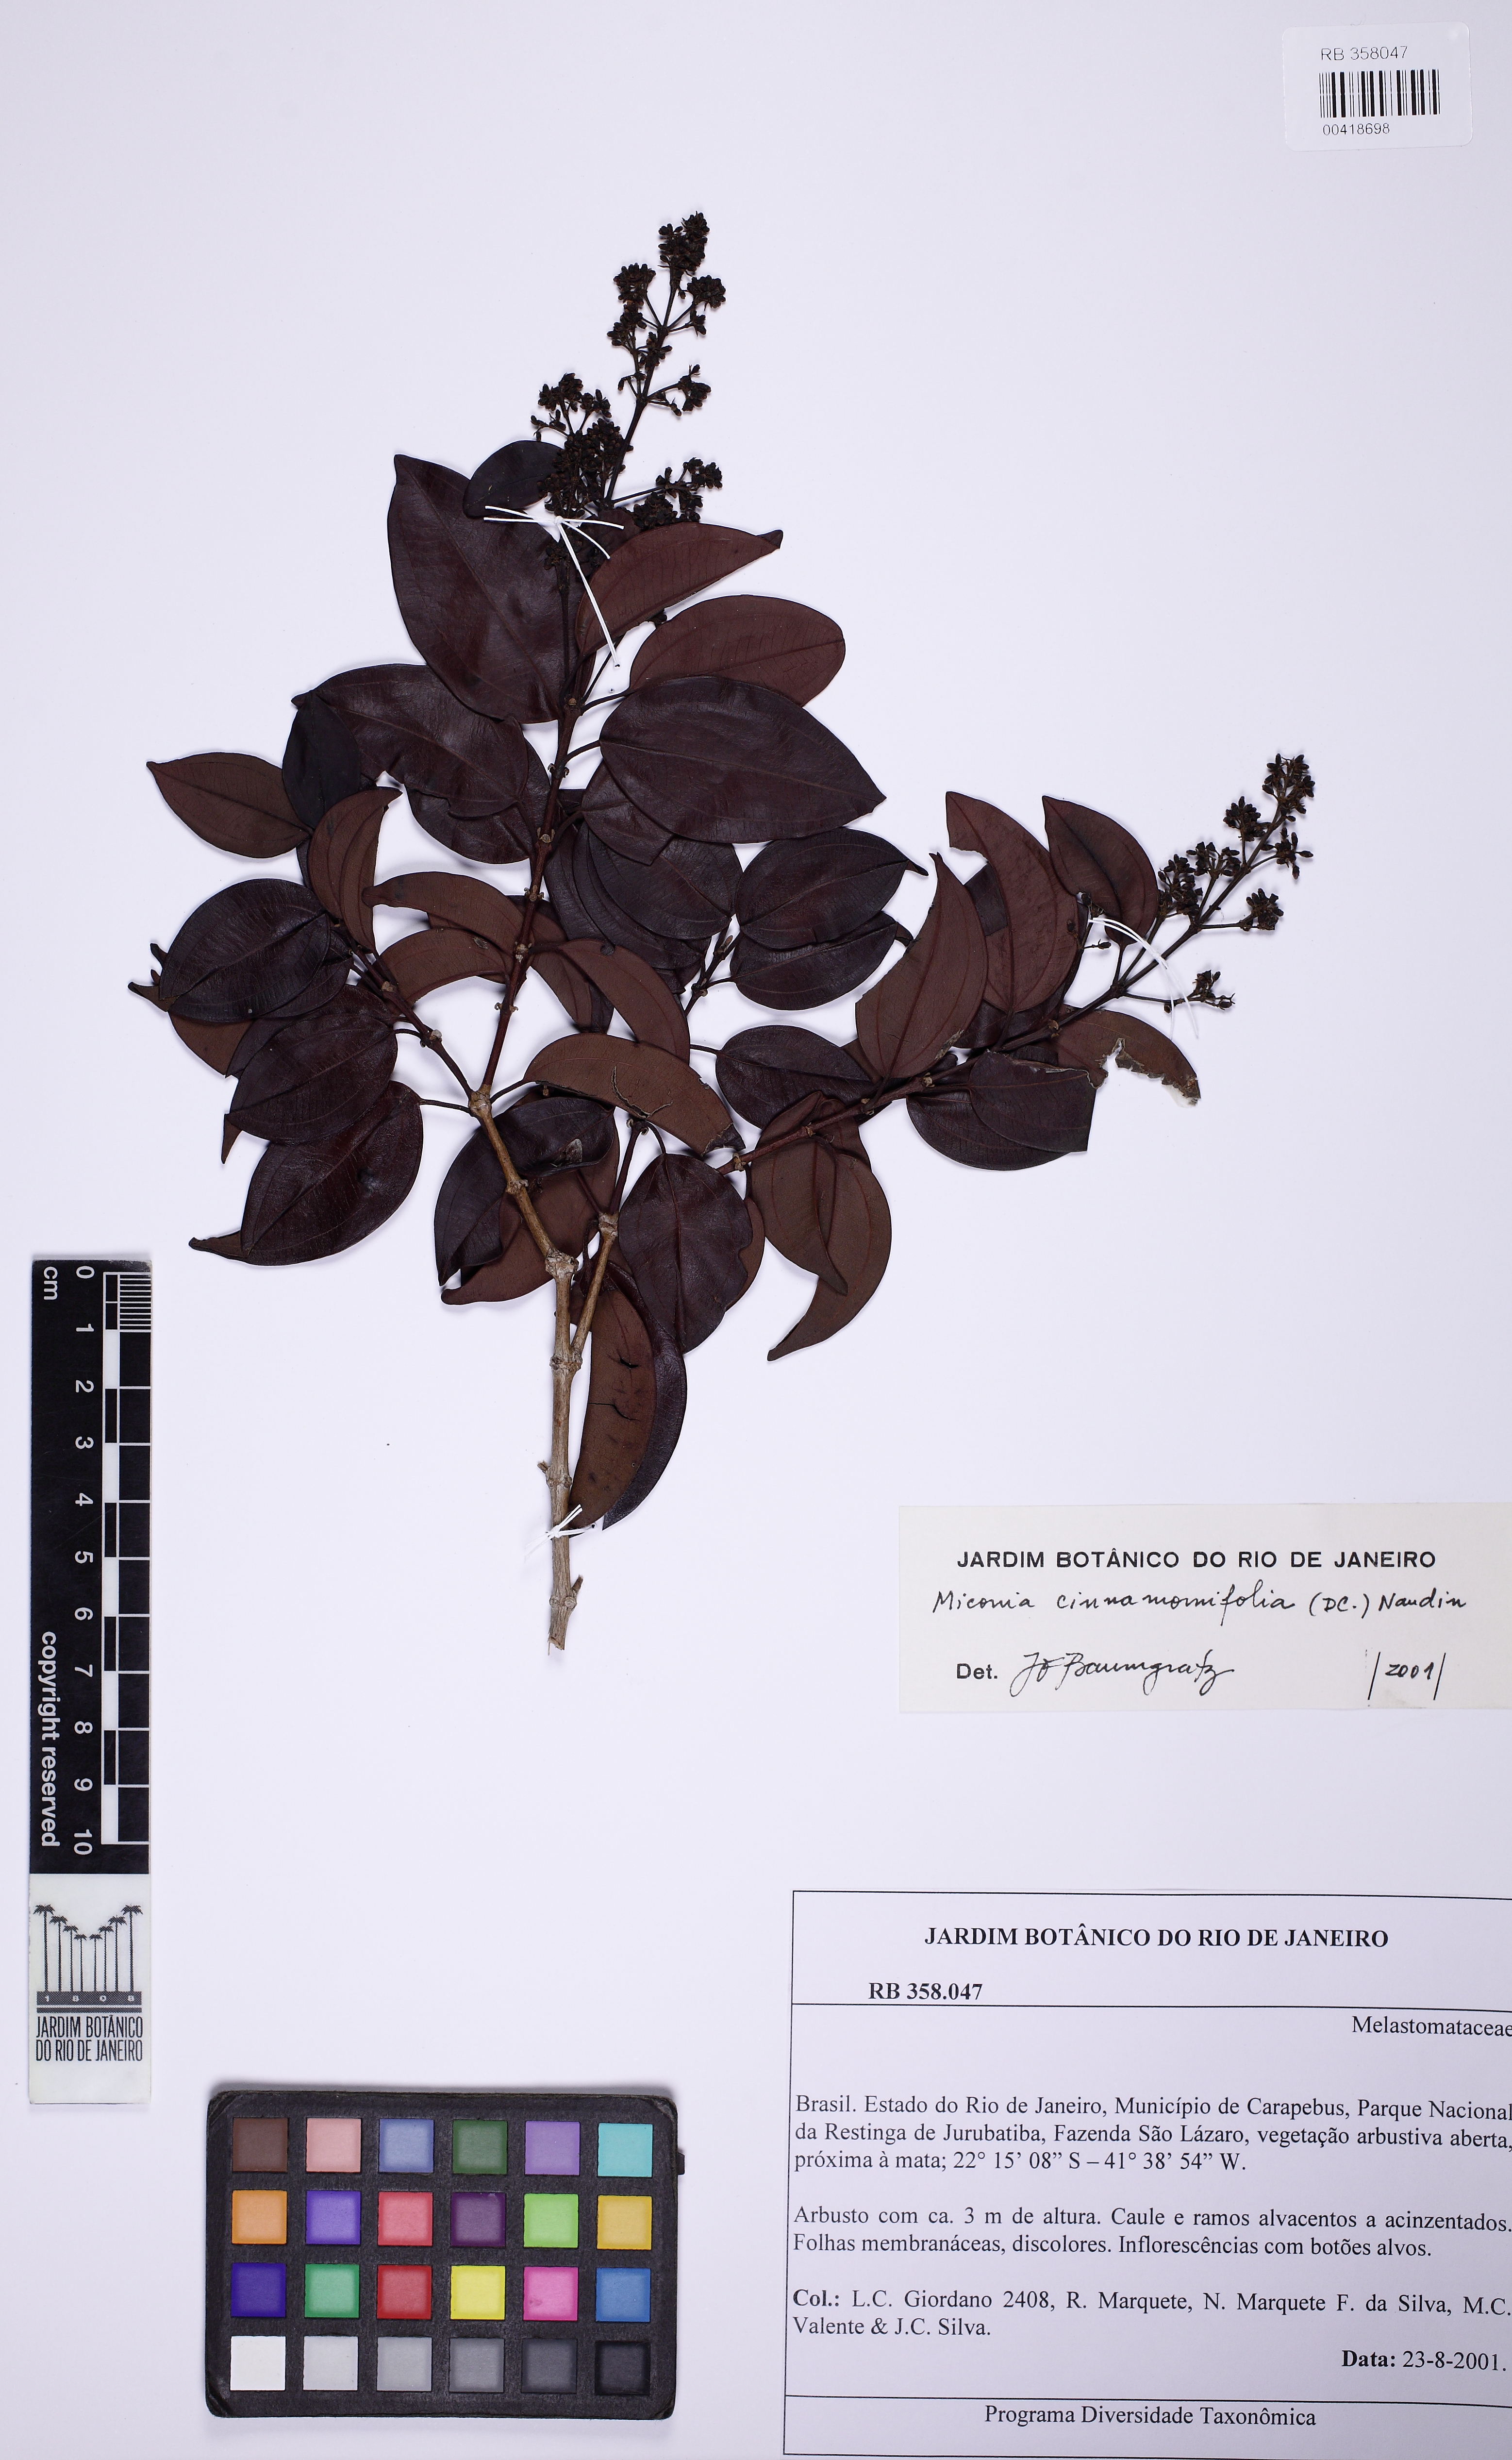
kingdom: Plantae
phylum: Tracheophyta
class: Magnoliopsida
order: Myrtales
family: Melastomataceae
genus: Miconia
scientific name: Miconia cinnamomifolia
